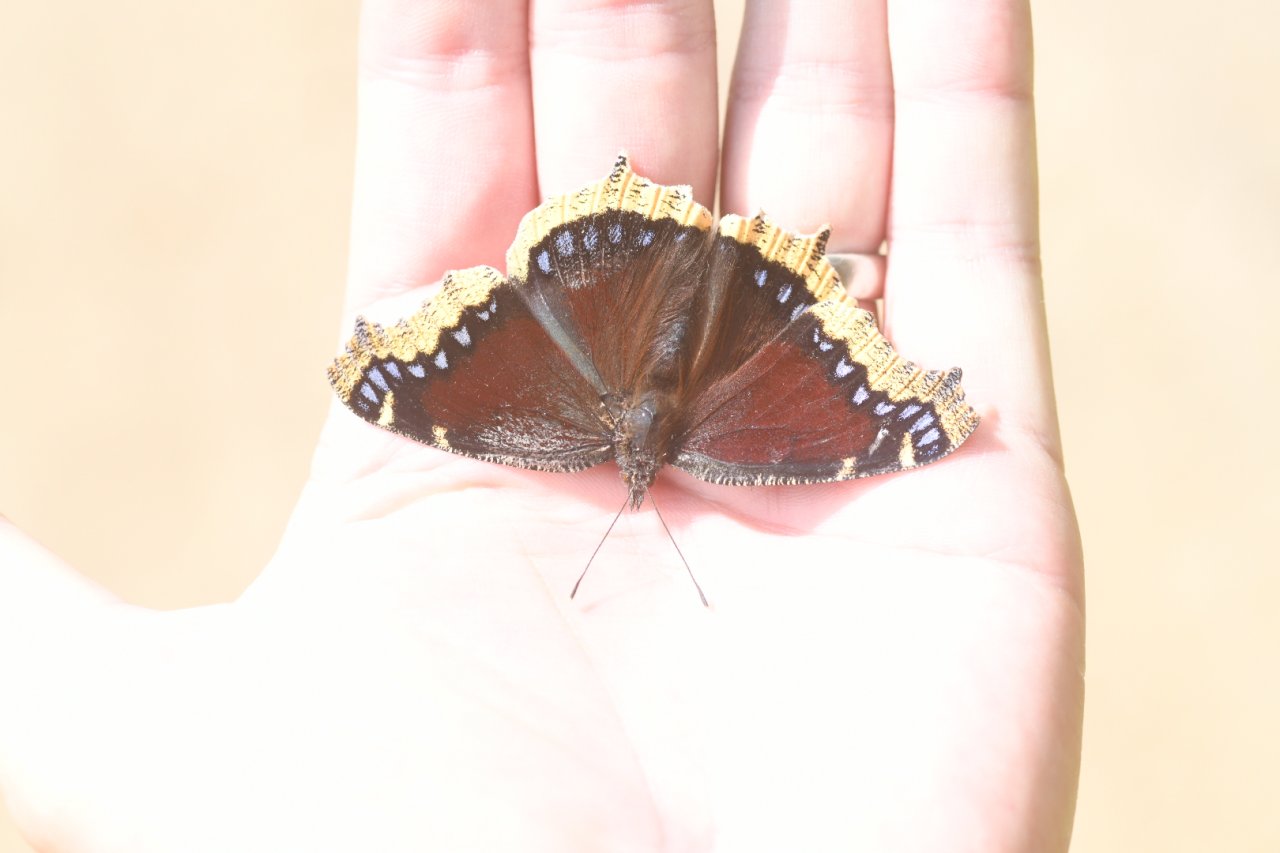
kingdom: Animalia
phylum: Arthropoda
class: Insecta
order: Lepidoptera
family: Nymphalidae
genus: Nymphalis
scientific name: Nymphalis antiopa
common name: Mourning Cloak
